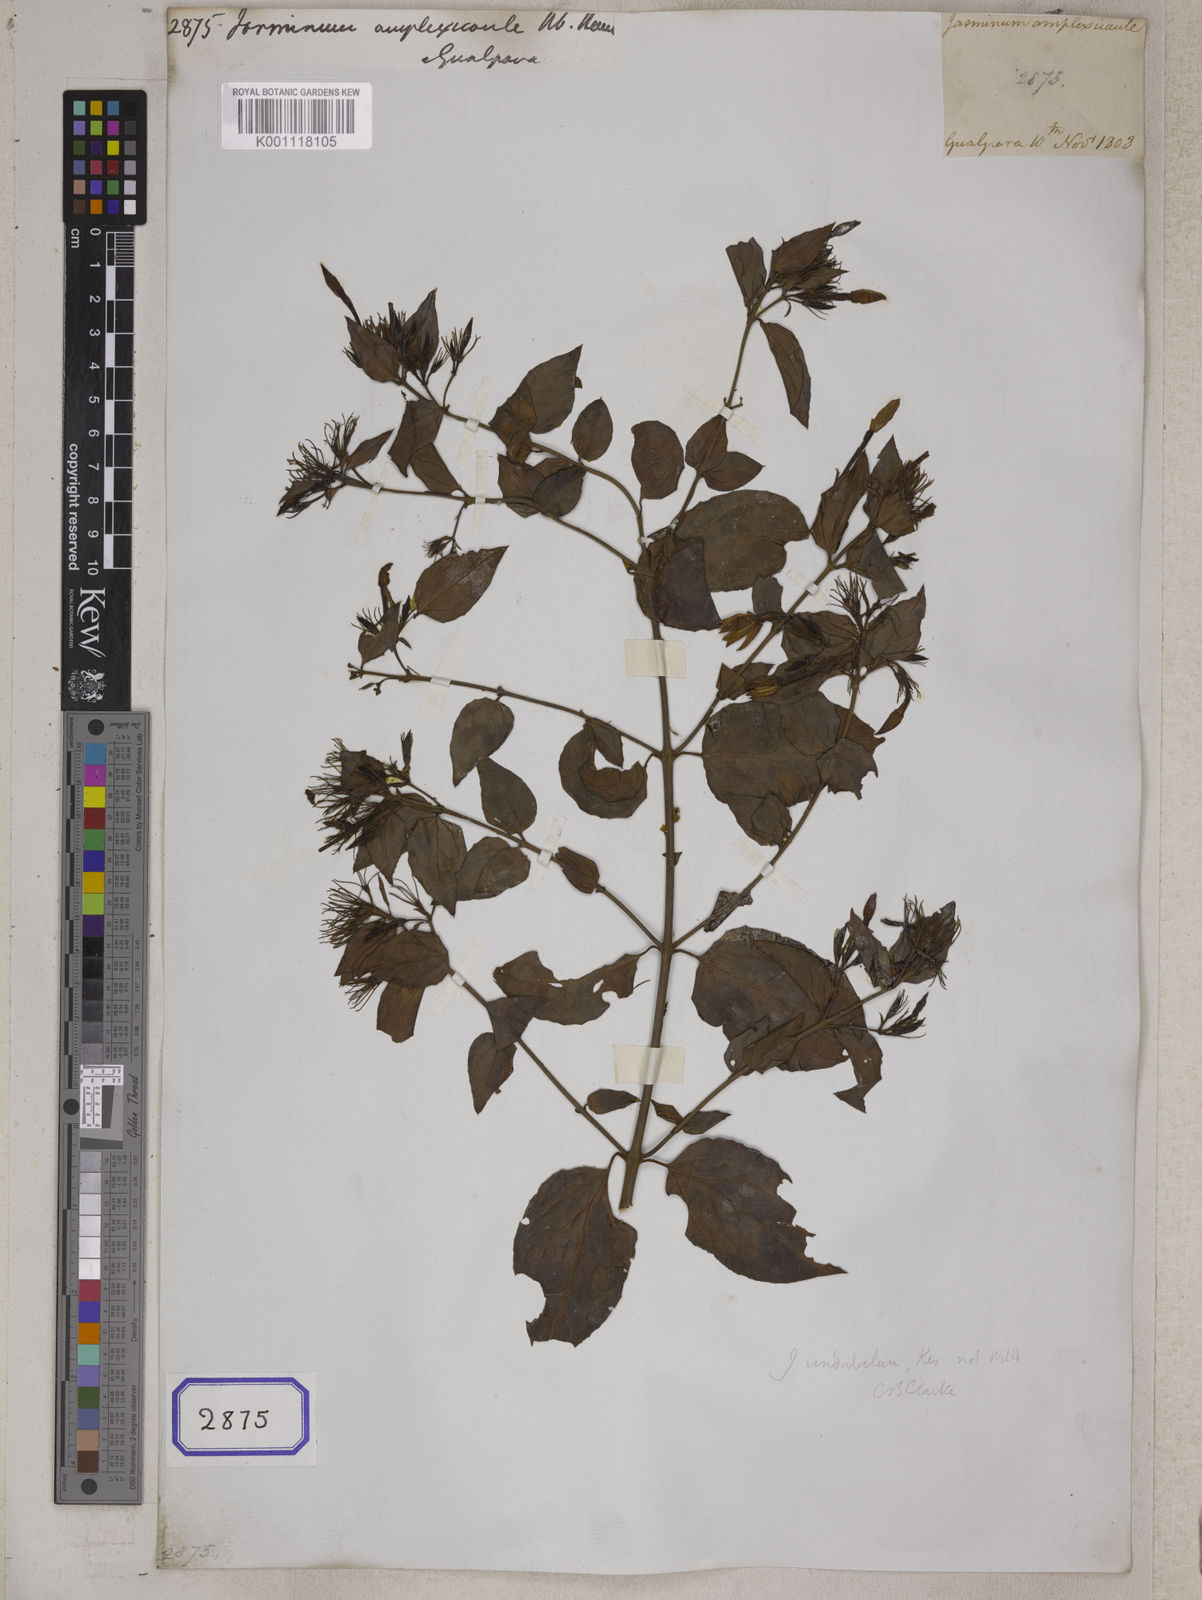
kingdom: Plantae
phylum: Tracheophyta
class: Magnoliopsida
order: Lamiales
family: Oleaceae
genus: Jasminum
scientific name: Jasminum
